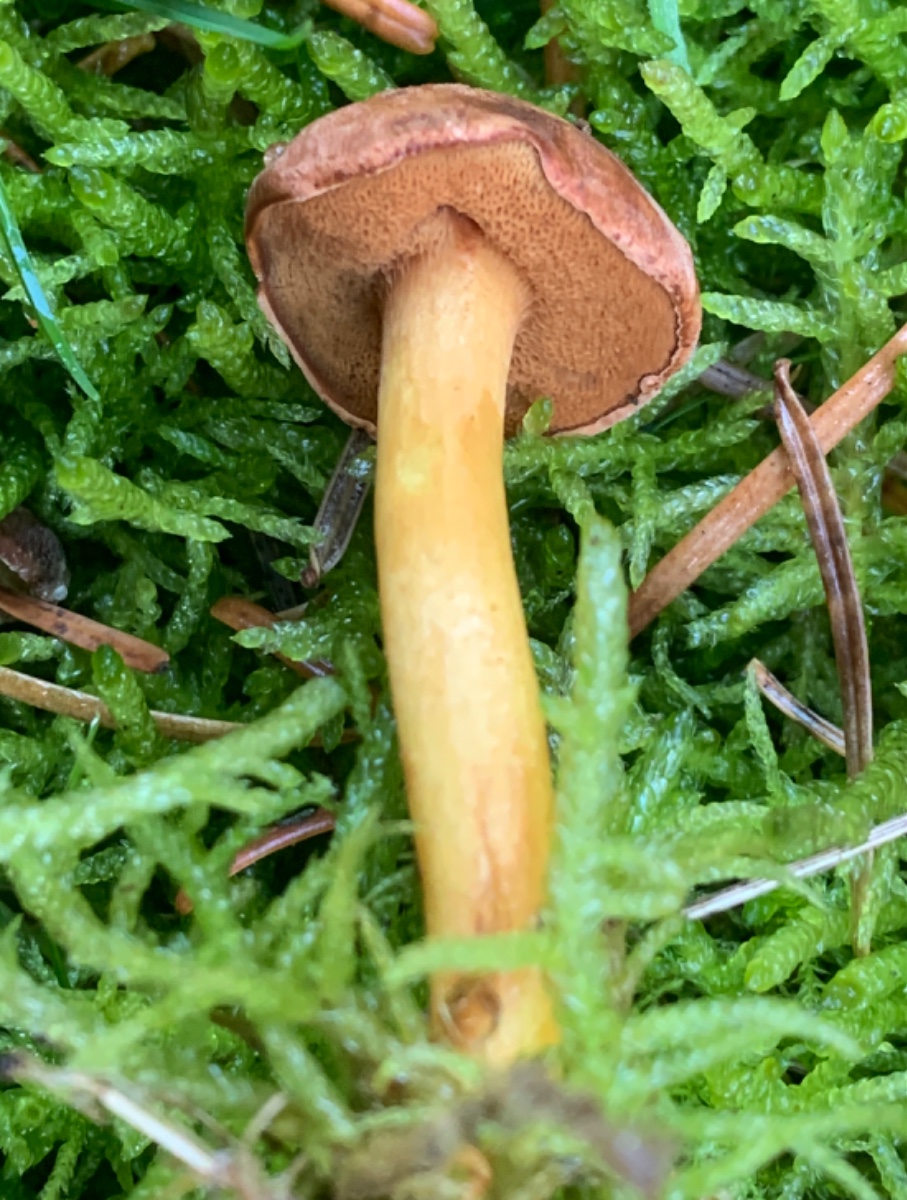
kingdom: Fungi
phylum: Basidiomycota
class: Agaricomycetes
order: Boletales
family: Boletaceae
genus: Chalciporus
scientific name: Chalciporus piperatus
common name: peberrørhat
